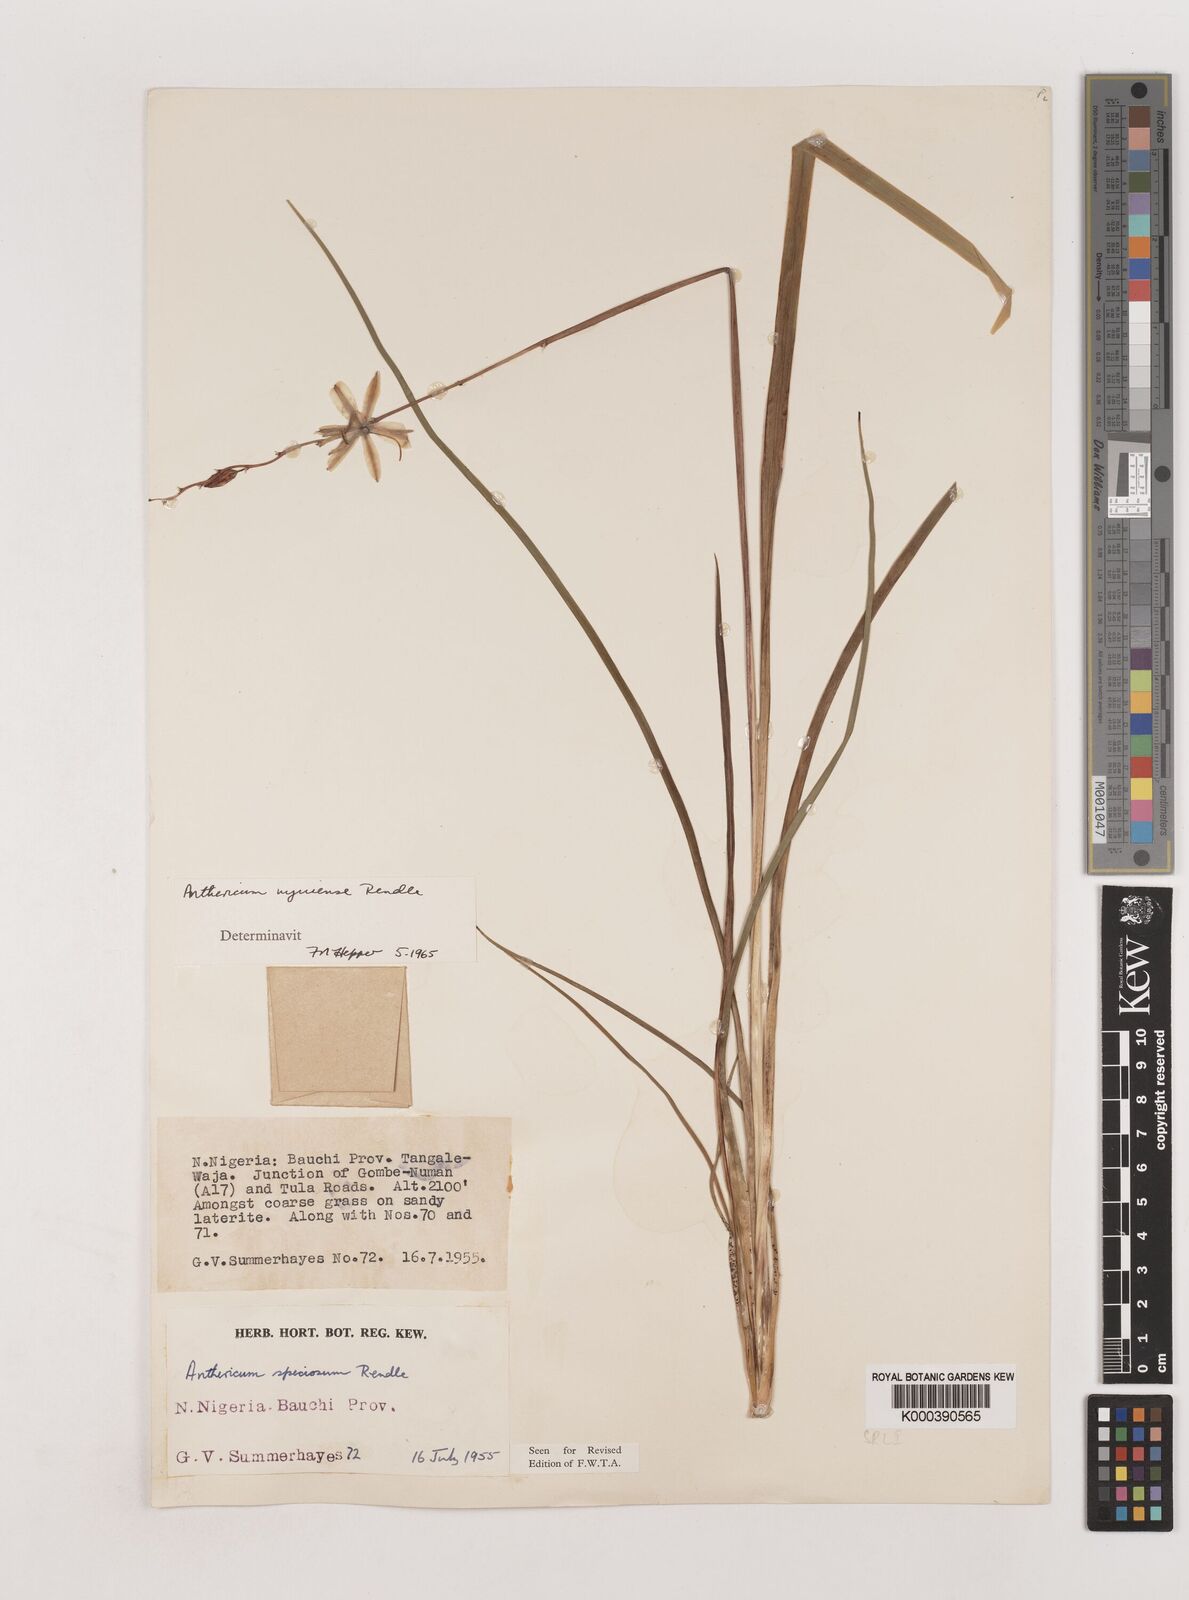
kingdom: Plantae
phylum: Tracheophyta
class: Liliopsida
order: Asparagales
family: Asparagaceae
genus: Chlorophytum
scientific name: Chlorophytum cameronii
